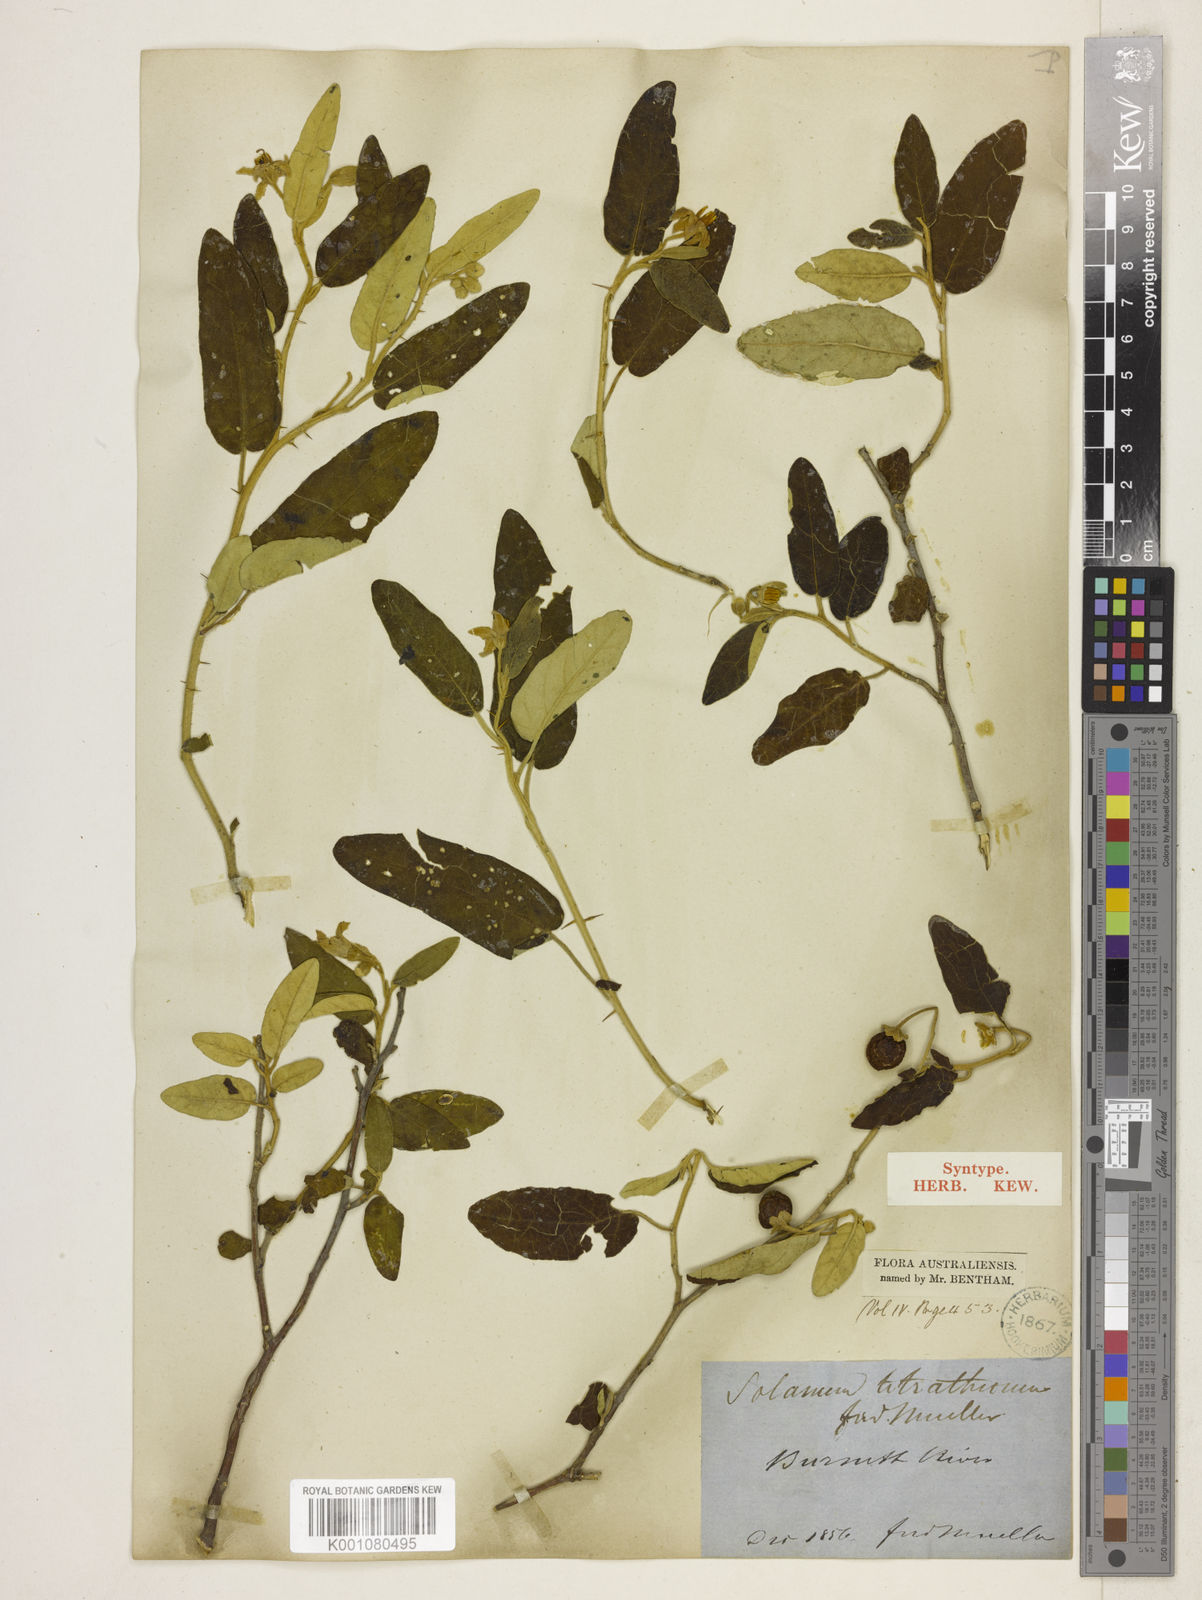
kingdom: Plantae
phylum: Tracheophyta
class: Magnoliopsida
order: Solanales
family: Solanaceae
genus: Solanum
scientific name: Solanum tetrathecum
